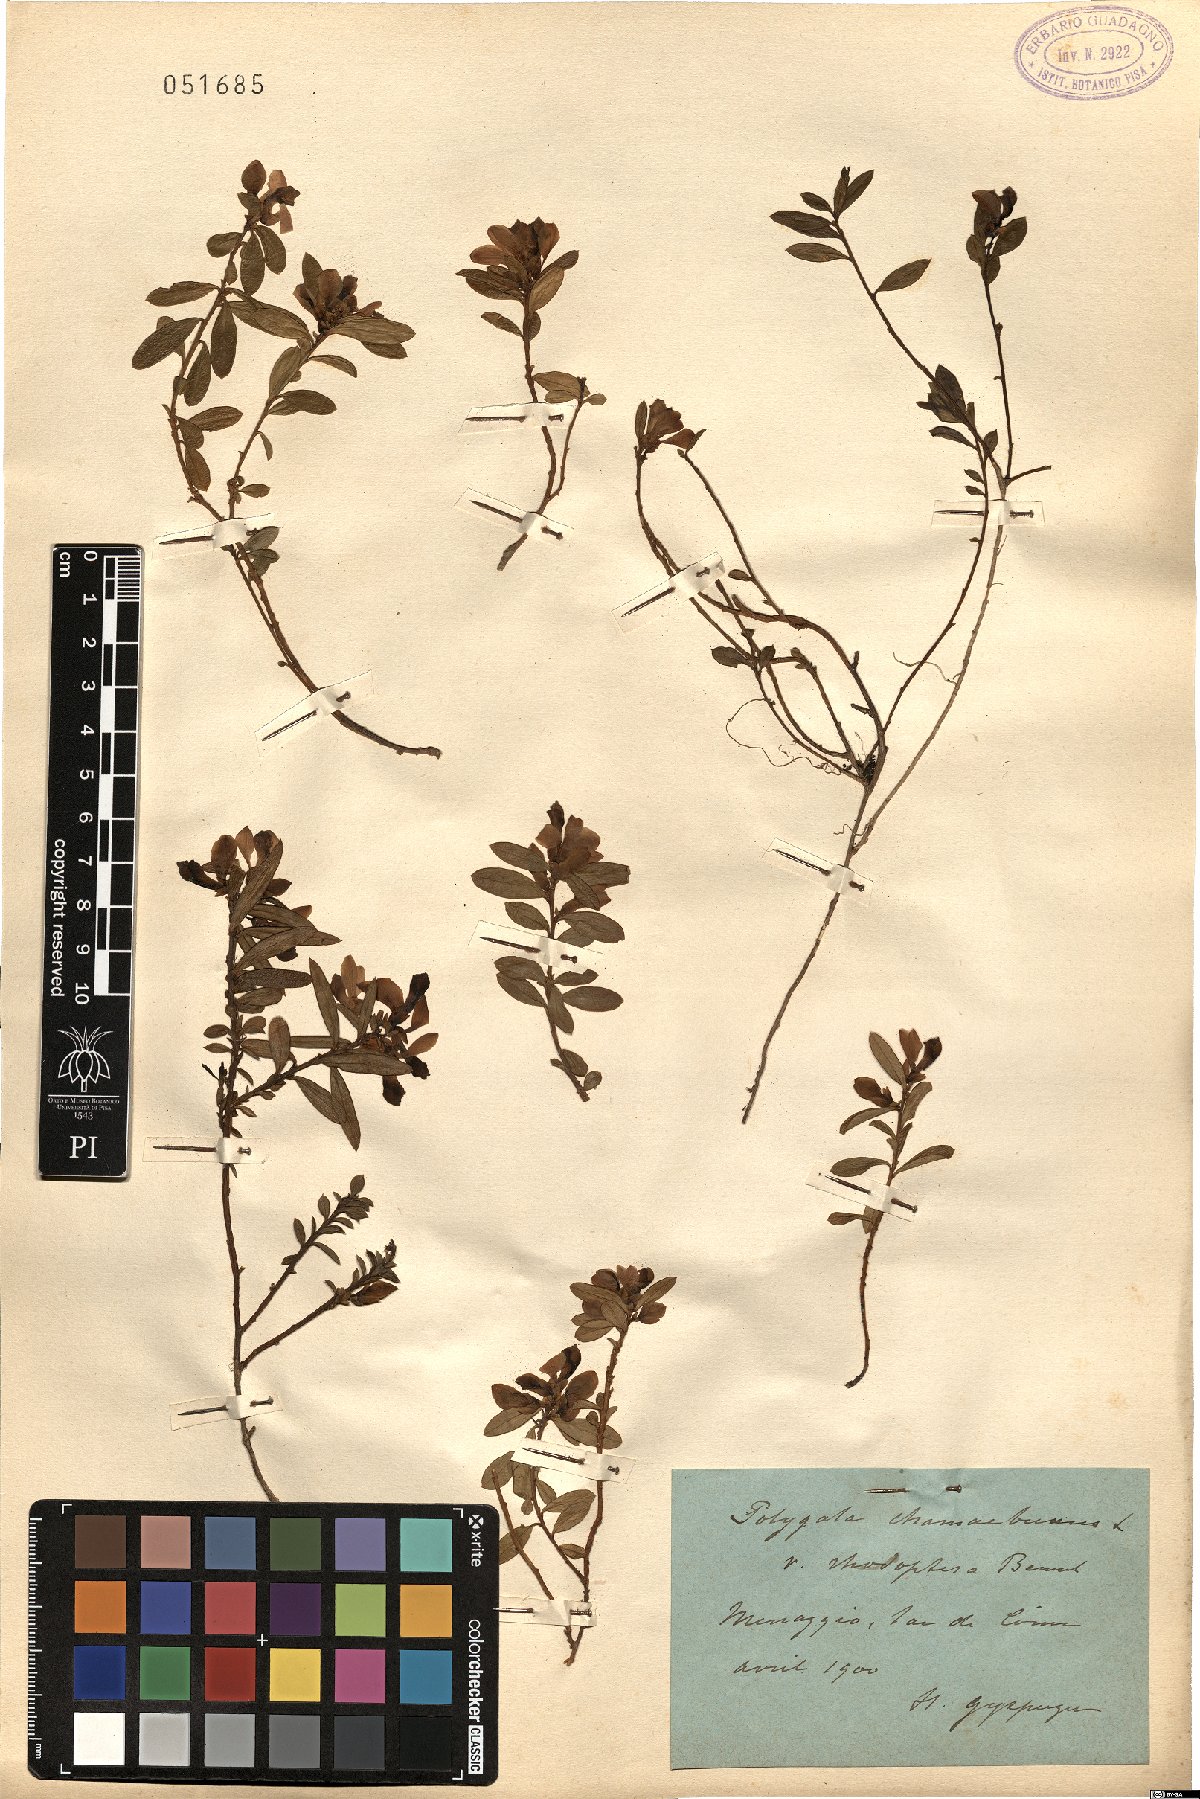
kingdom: Plantae
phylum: Tracheophyta
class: Magnoliopsida
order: Fabales
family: Polygalaceae
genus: Polygaloides
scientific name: Polygaloides chamaebuxus
